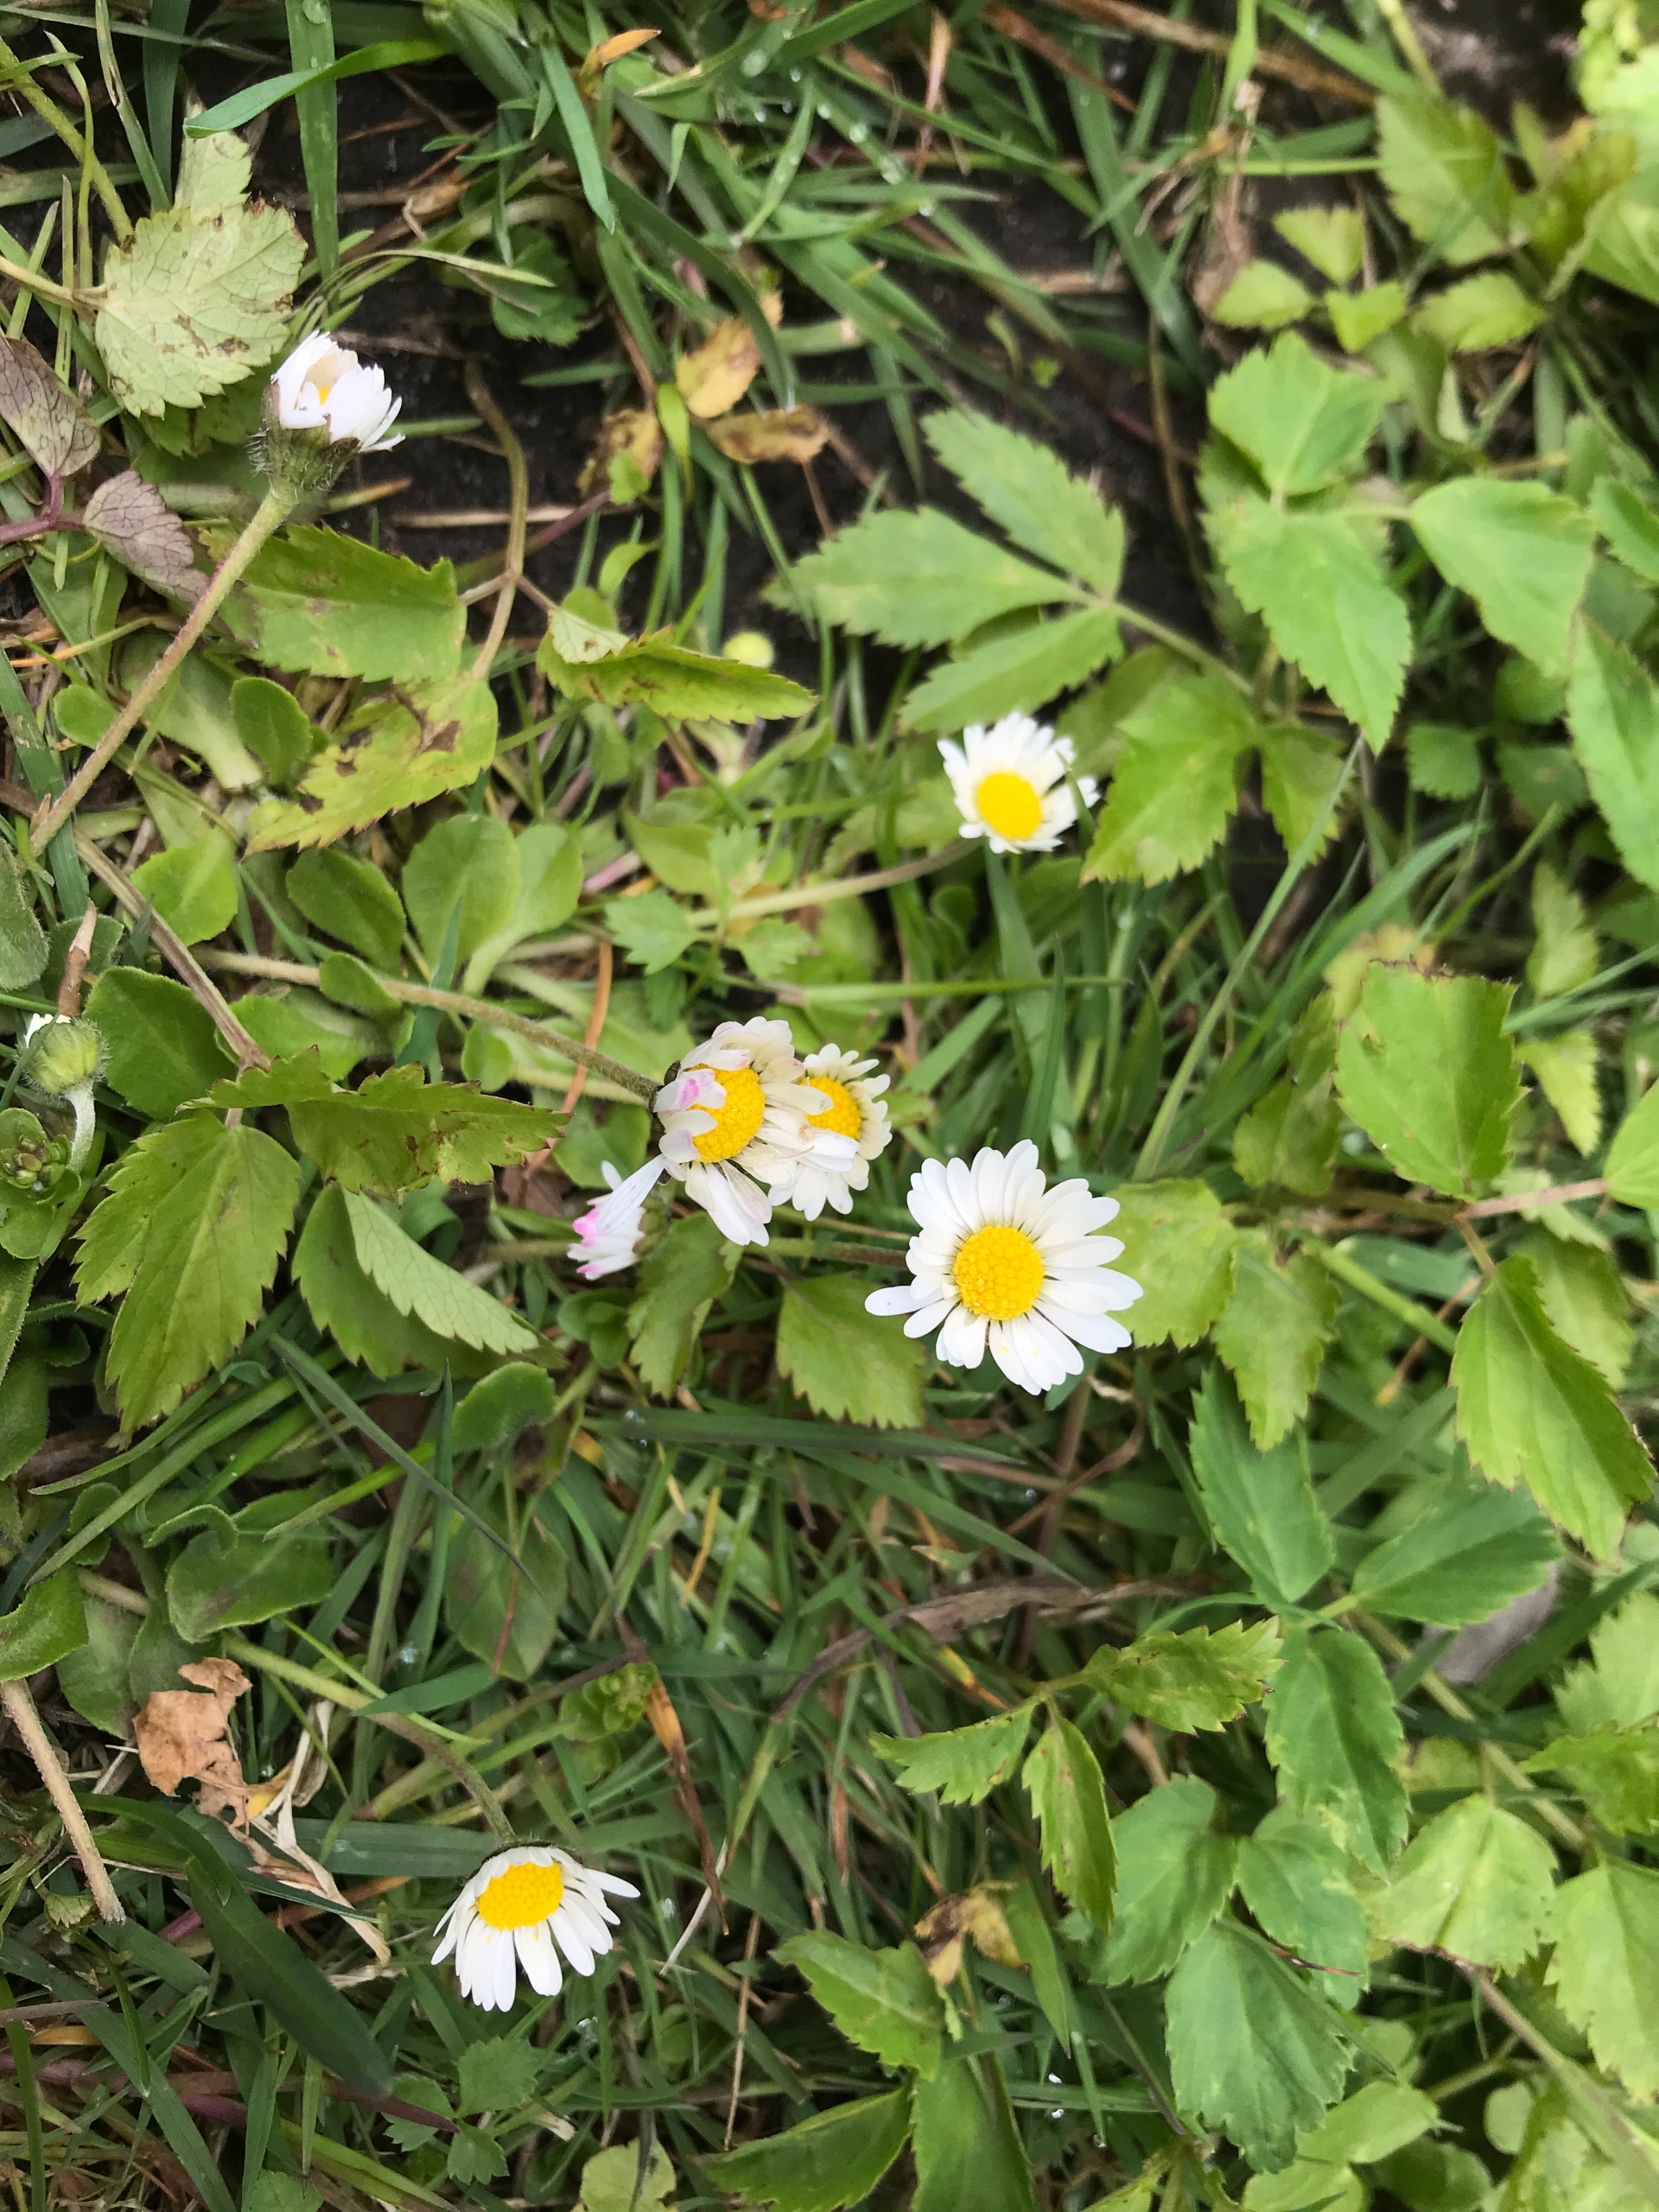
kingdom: Plantae
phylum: Tracheophyta
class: Magnoliopsida
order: Asterales
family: Asteraceae
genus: Bellis
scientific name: Bellis perennis
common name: Tusindfryd
